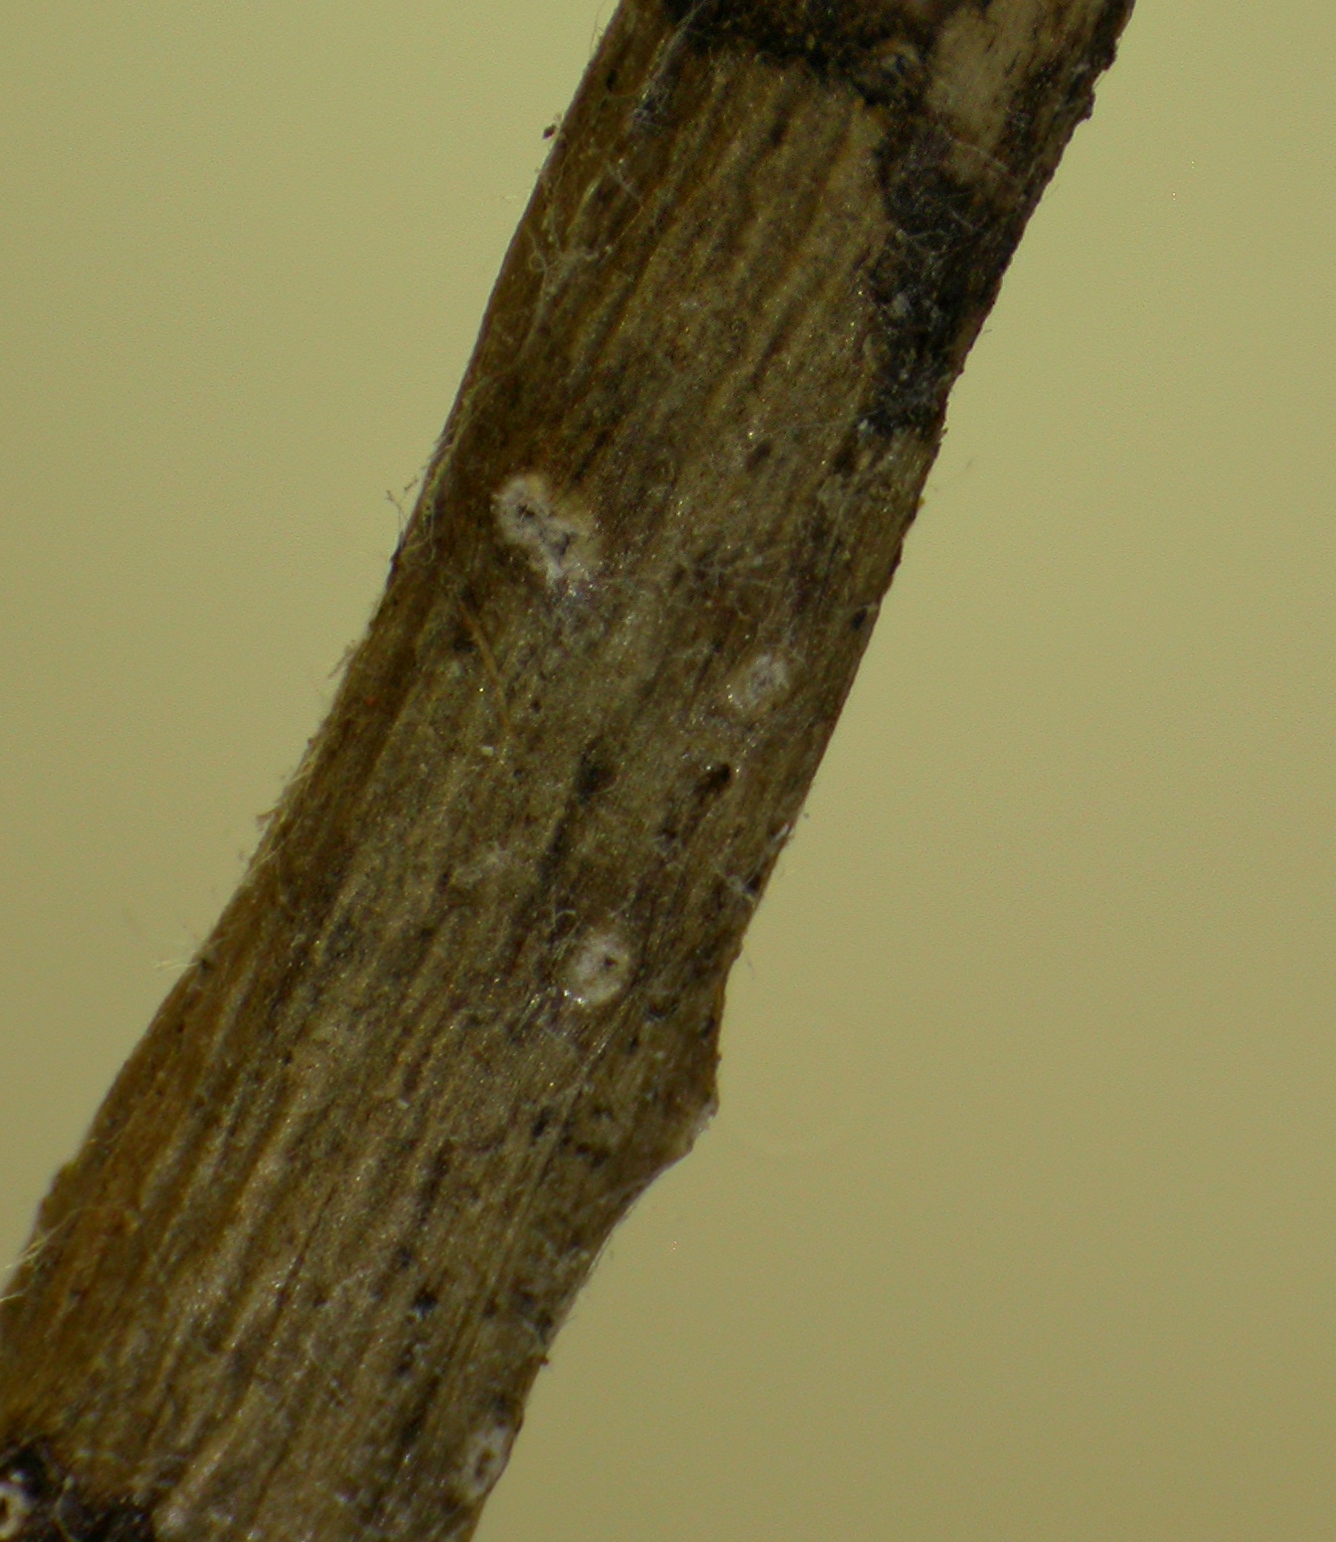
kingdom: Fungi
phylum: Ascomycota
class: Sordariomycetes
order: Xylariales
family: Hyponectriaceae
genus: Physalospora
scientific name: Physalospora macrospora
